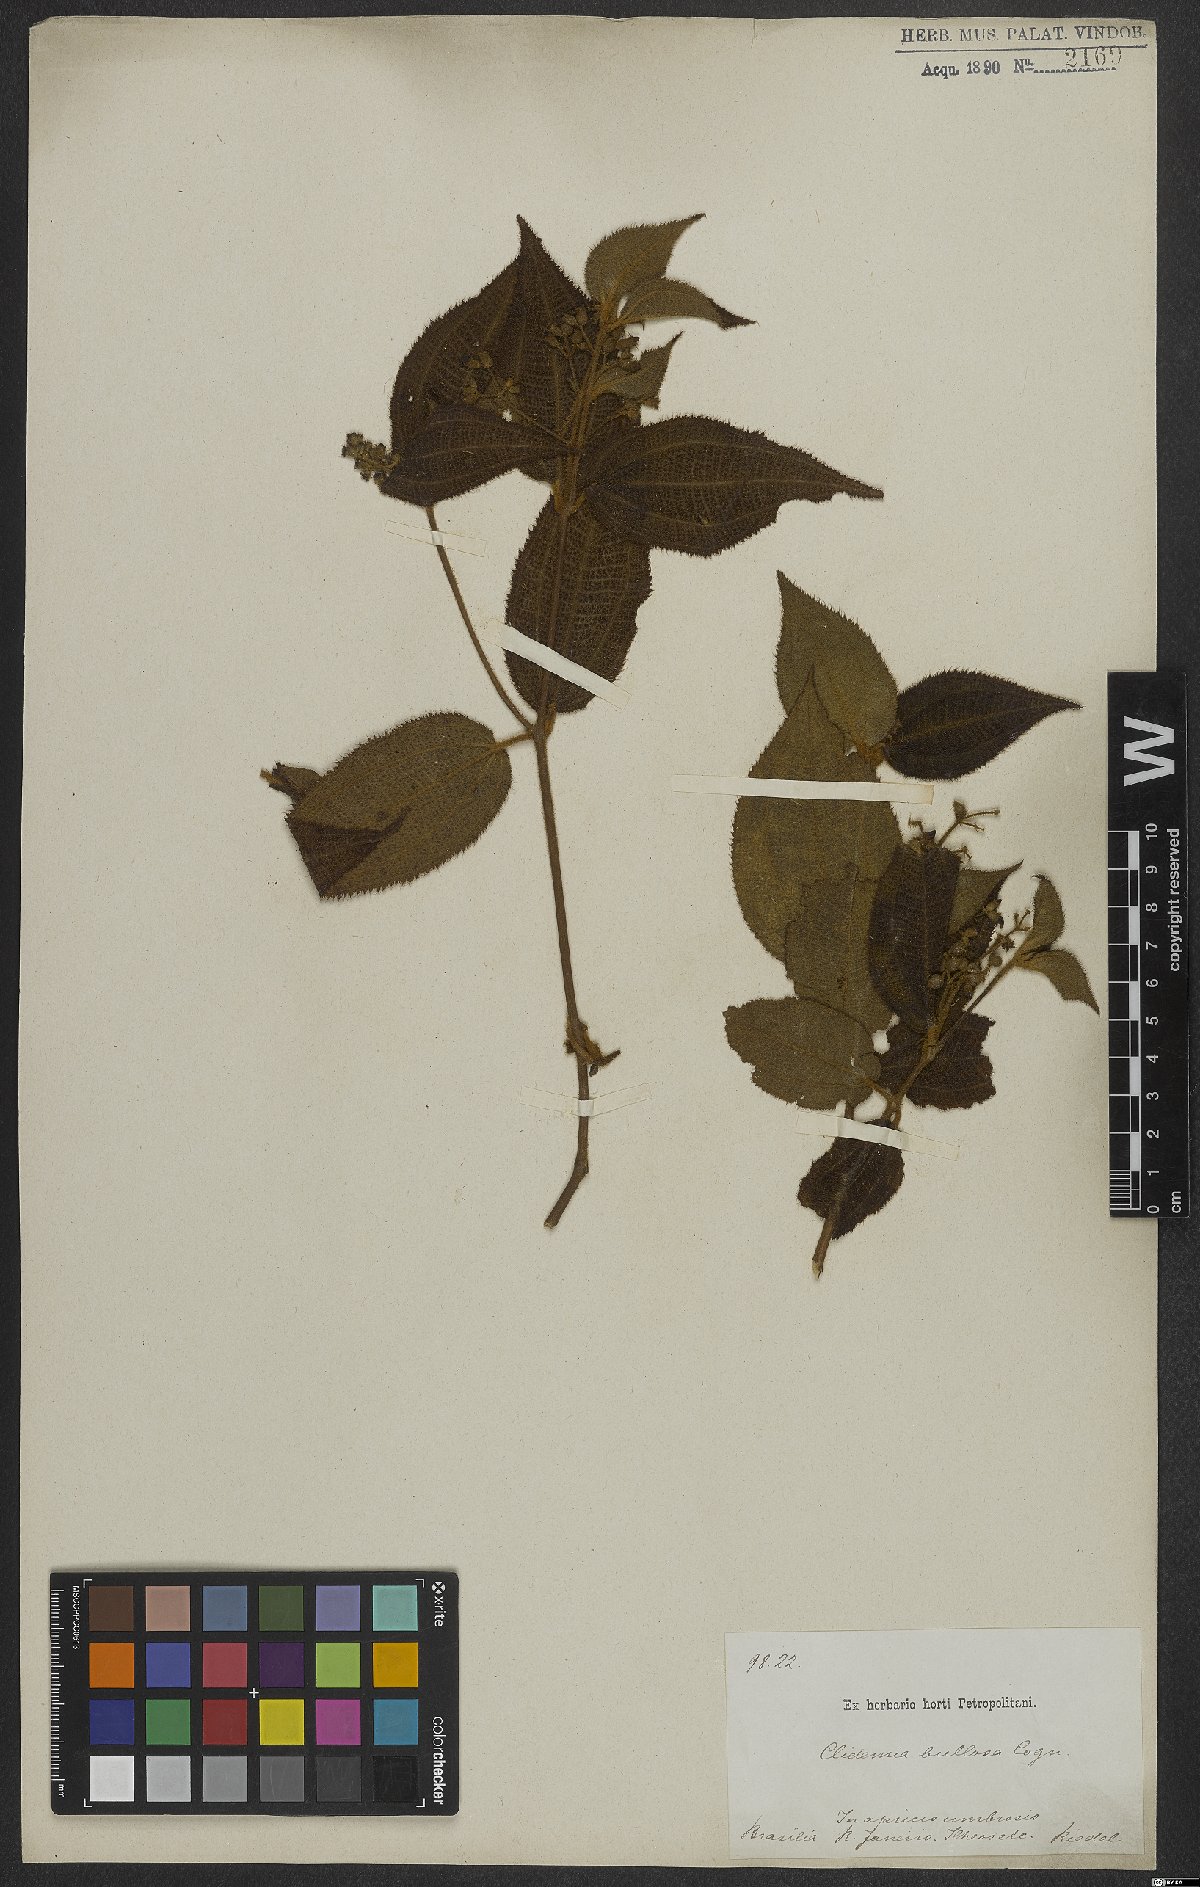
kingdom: Plantae
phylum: Tracheophyta
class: Magnoliopsida
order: Myrtales
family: Melastomataceae
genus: Miconia
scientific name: Miconia bullosa
